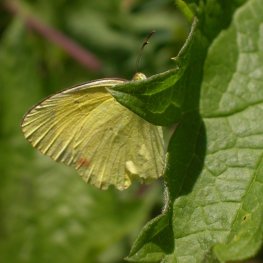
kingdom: Animalia
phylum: Arthropoda
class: Insecta
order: Lepidoptera
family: Pieridae
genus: Pyrisitia
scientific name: Pyrisitia lisa
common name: Little Yellow
